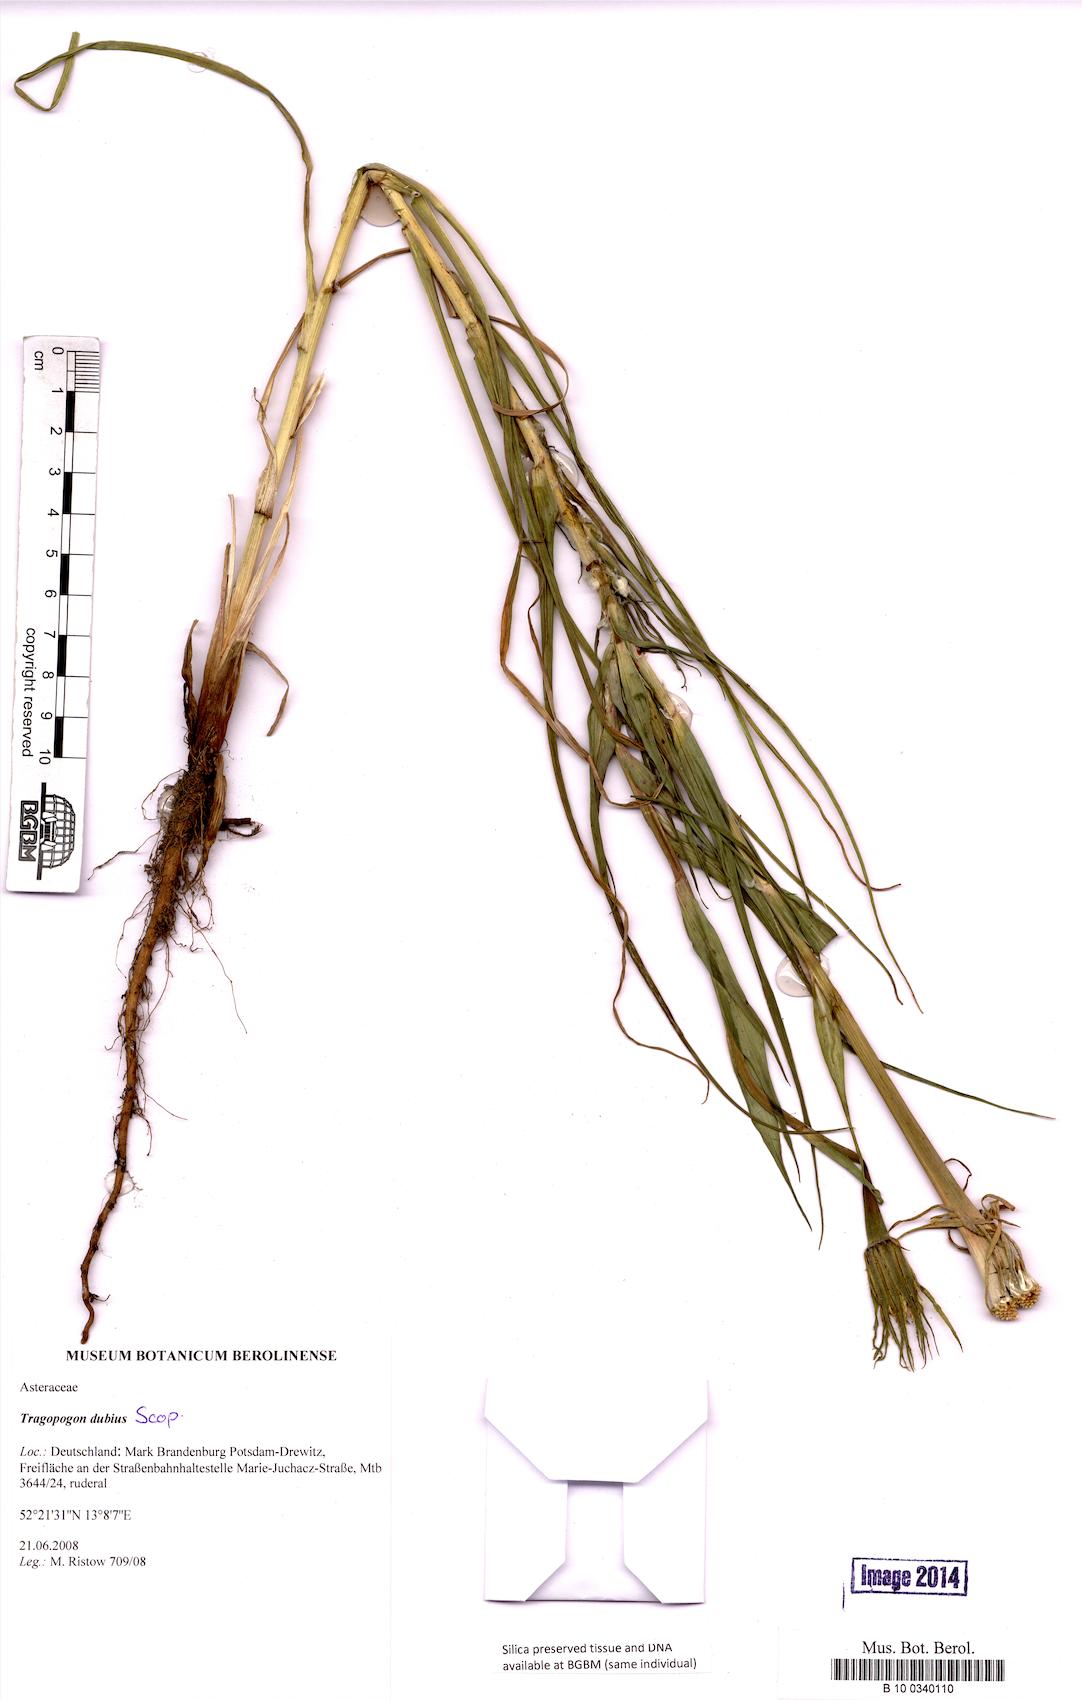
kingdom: Plantae
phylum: Tracheophyta
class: Magnoliopsida
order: Asterales
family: Asteraceae
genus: Tragopogon
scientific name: Tragopogon dubius
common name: Yellow salsify
